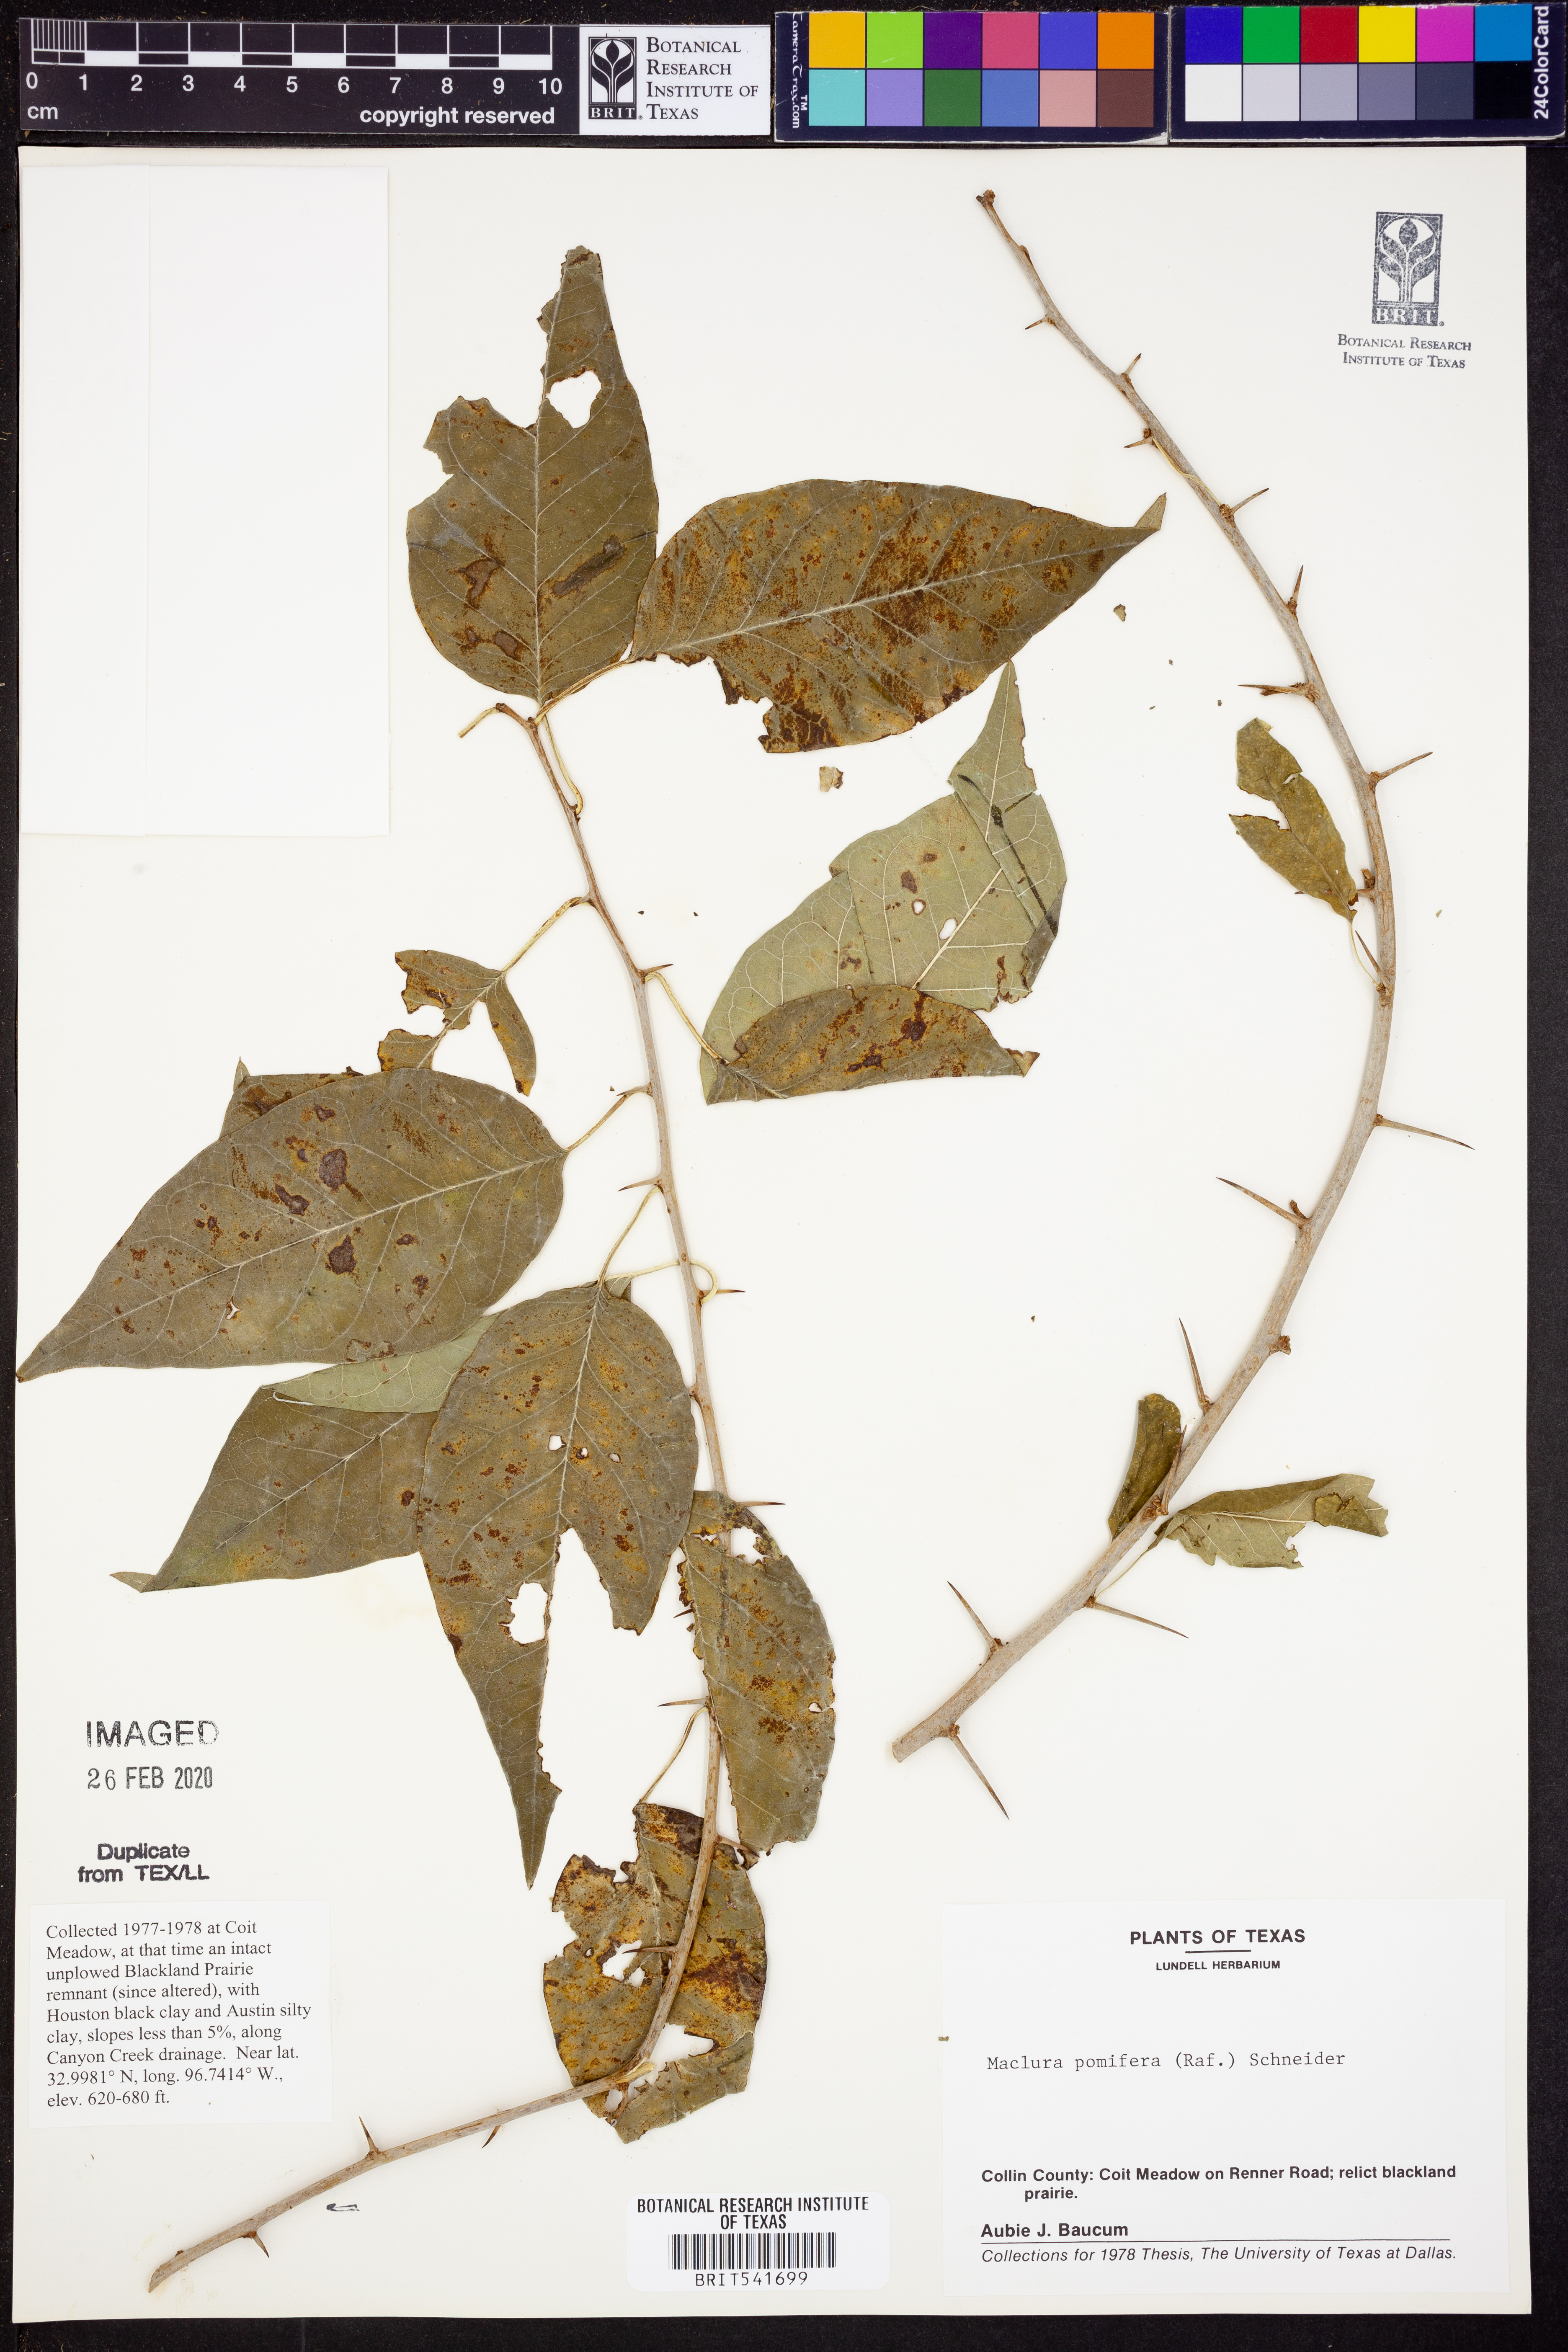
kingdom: Plantae
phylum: Tracheophyta
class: Magnoliopsida
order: Rosales
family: Moraceae
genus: Maclura
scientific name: Maclura pomifera
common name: Osage-orange
